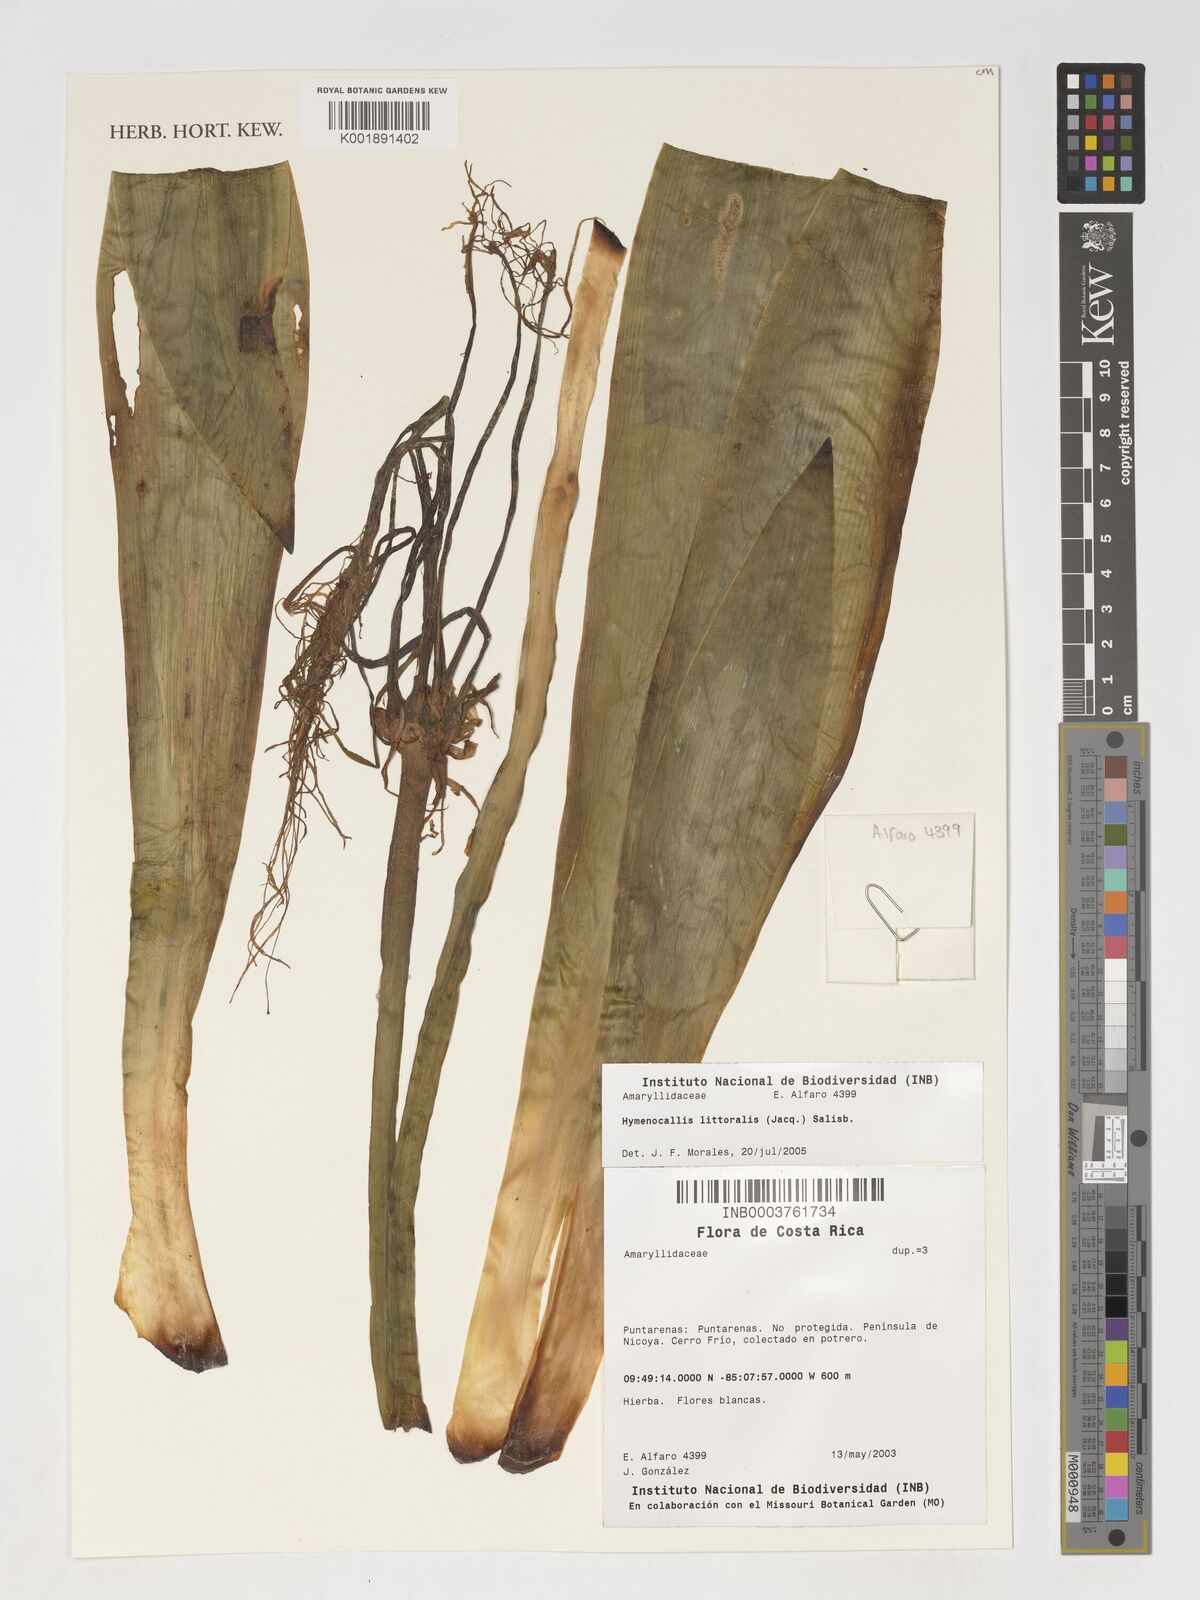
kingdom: Plantae
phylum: Tracheophyta
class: Liliopsida
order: Asparagales
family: Amaryllidaceae
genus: Hymenocallis
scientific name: Hymenocallis littoralis
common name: Beach spiderlily
